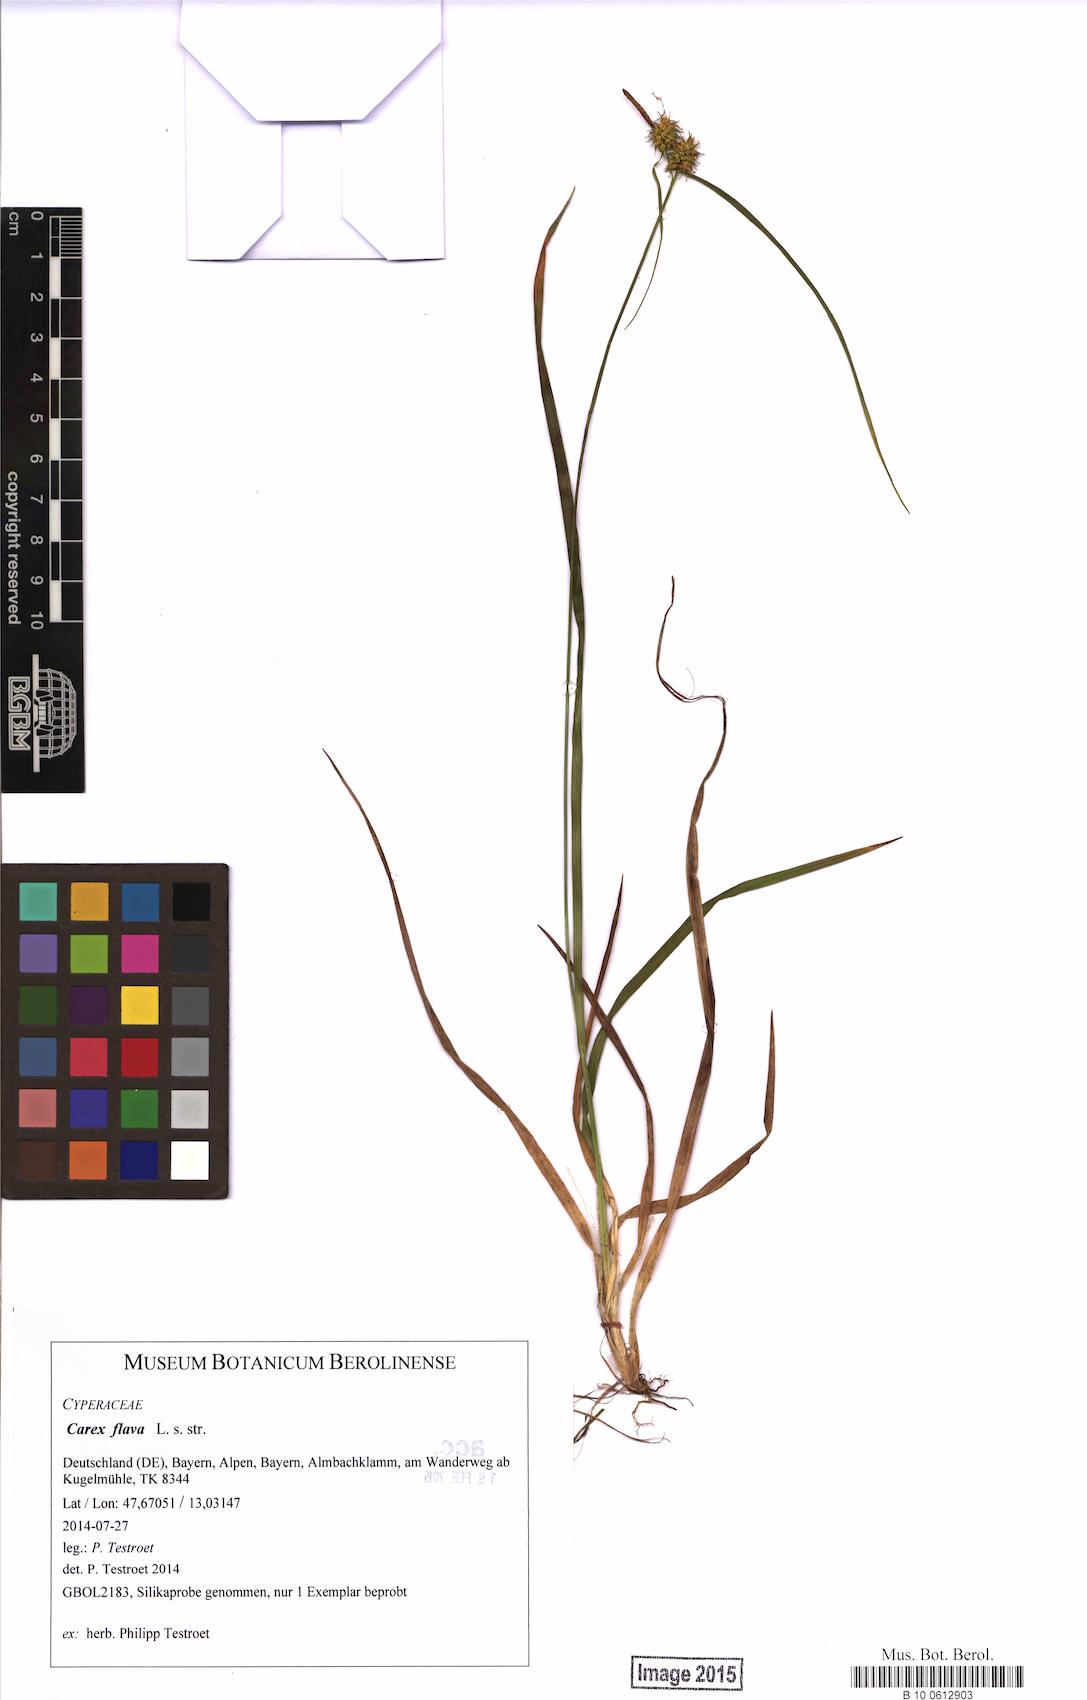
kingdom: Plantae
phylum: Tracheophyta
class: Liliopsida
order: Poales
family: Cyperaceae
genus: Carex
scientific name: Carex flava
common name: Large yellow-sedge
